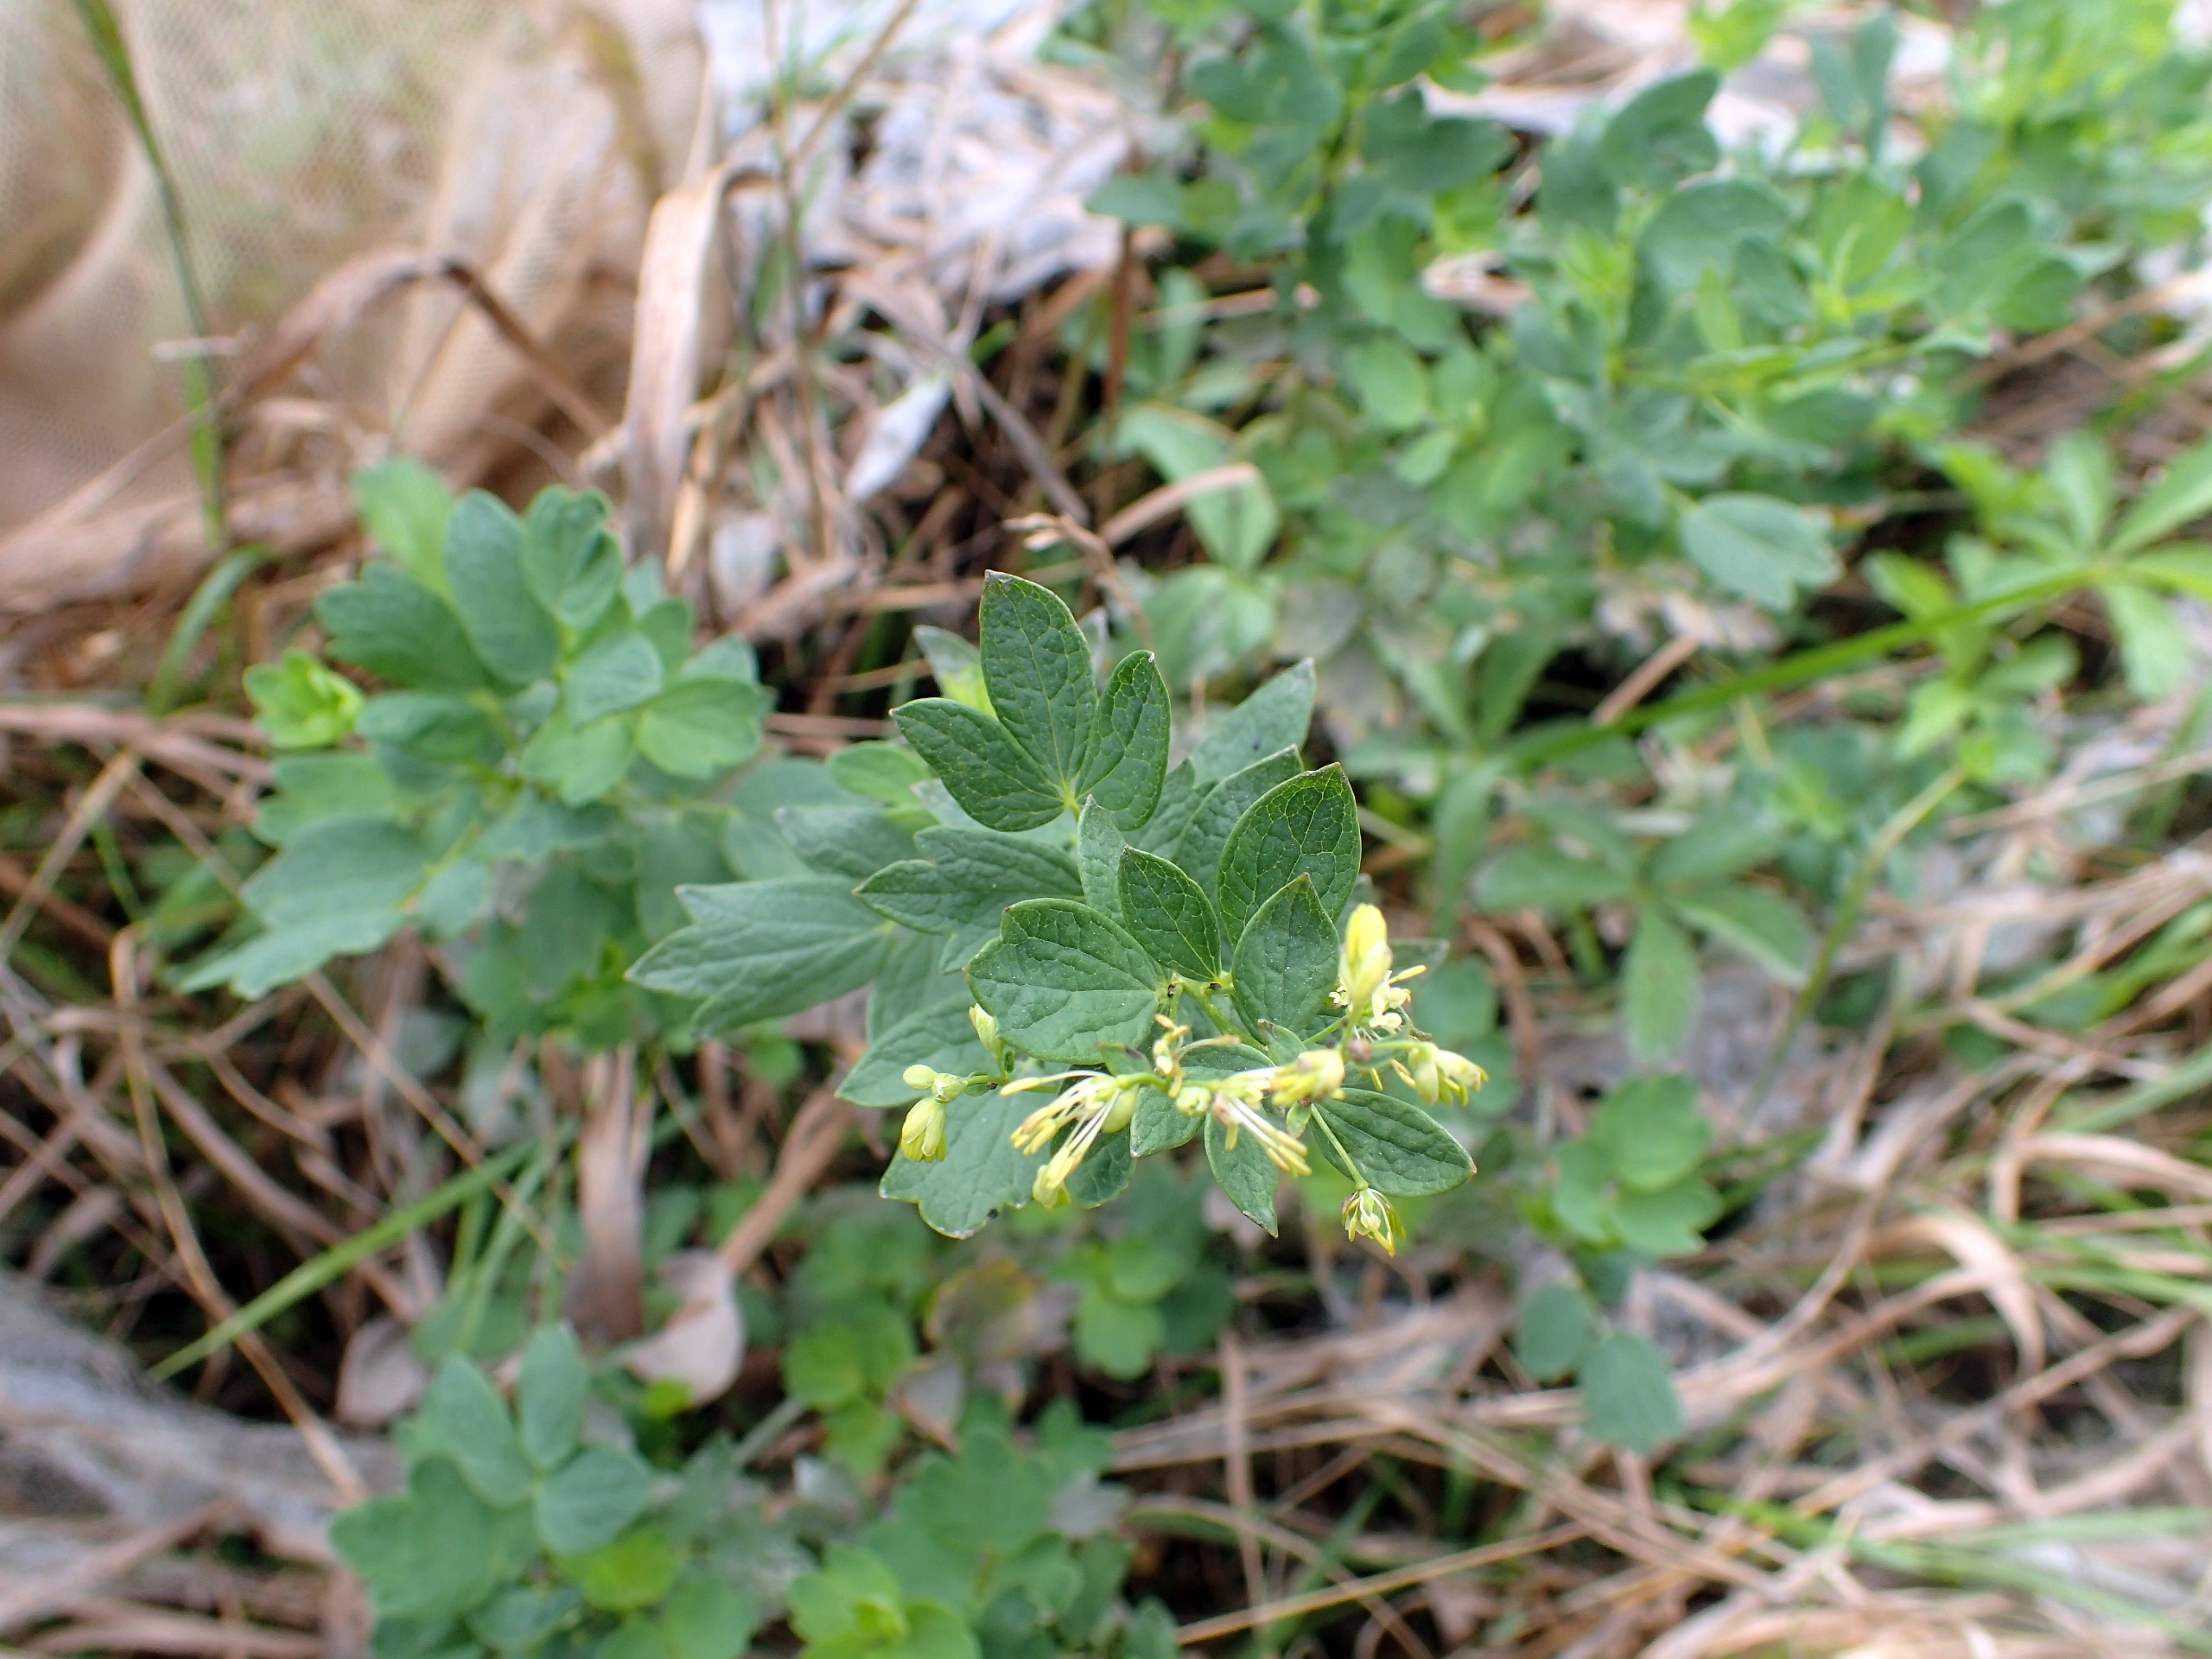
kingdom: Plantae
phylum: Tracheophyta
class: Magnoliopsida
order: Ranunculales
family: Ranunculaceae
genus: Thalictrum
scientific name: Thalictrum flavum
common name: Gul frøstjerne
